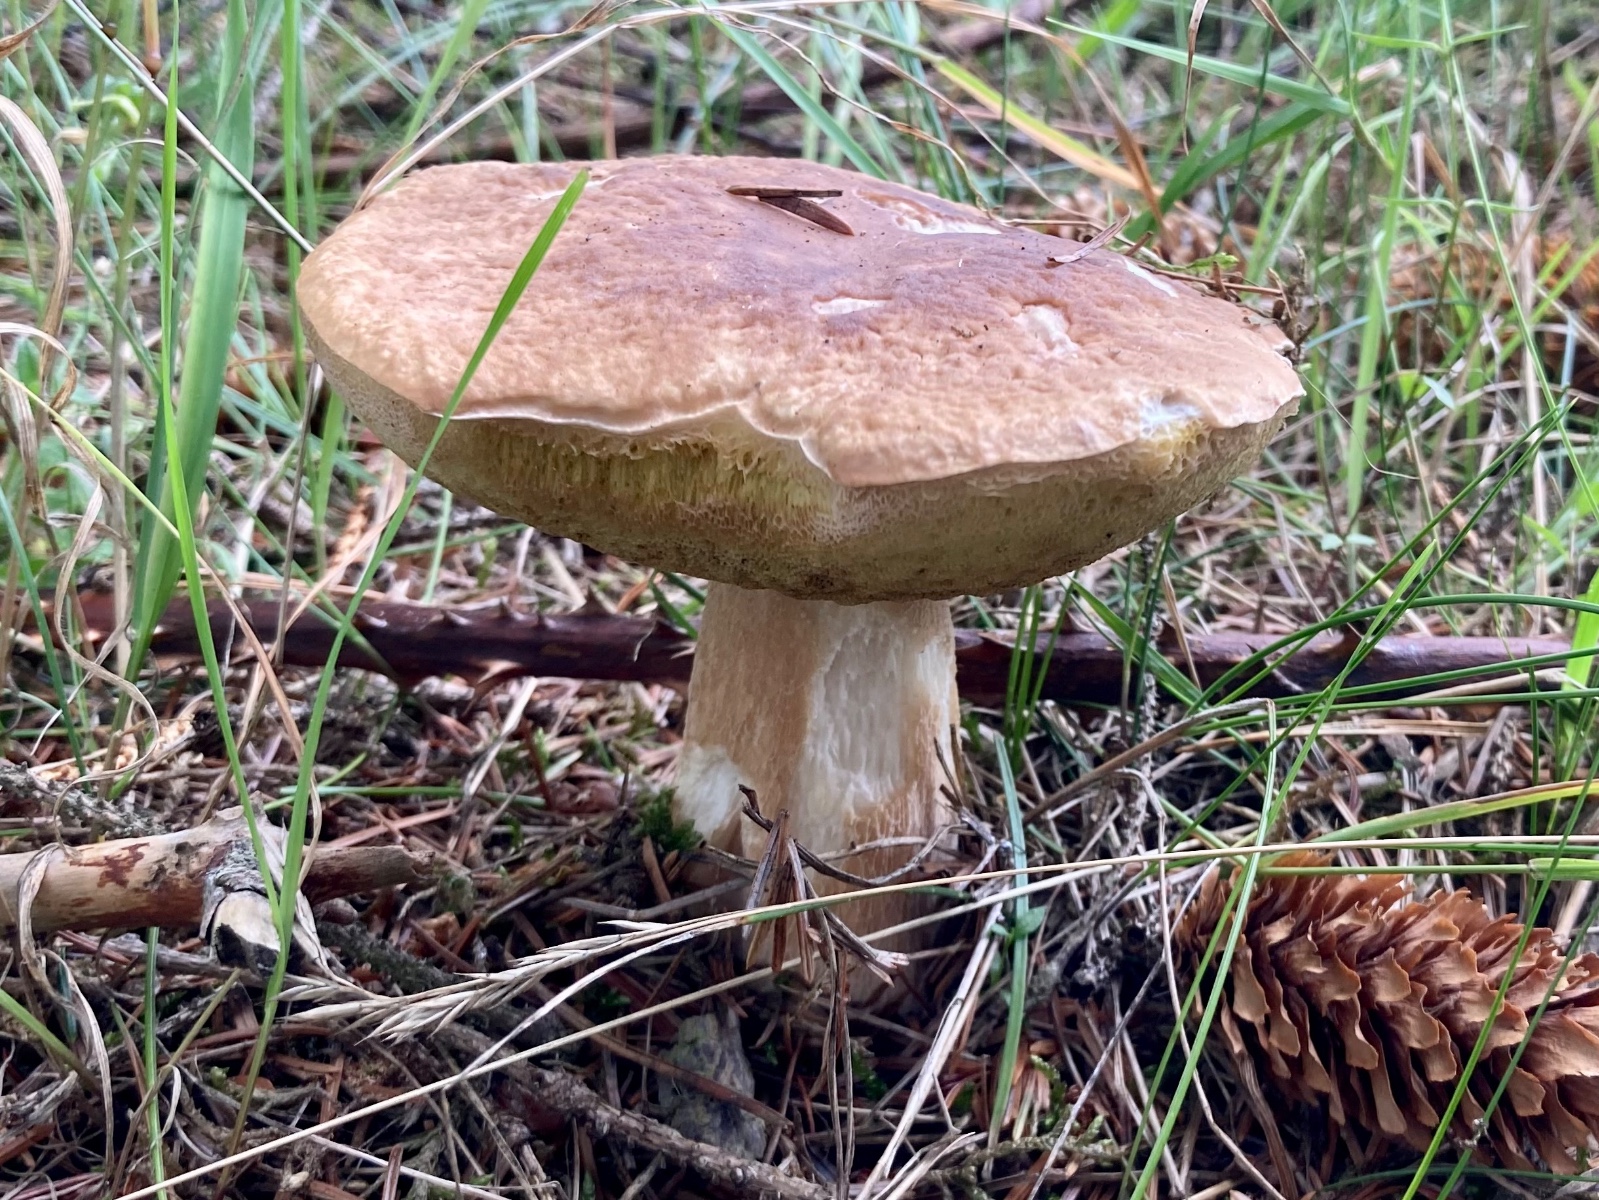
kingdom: Fungi
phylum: Basidiomycota
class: Agaricomycetes
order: Boletales
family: Boletaceae
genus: Boletus
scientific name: Boletus edulis
